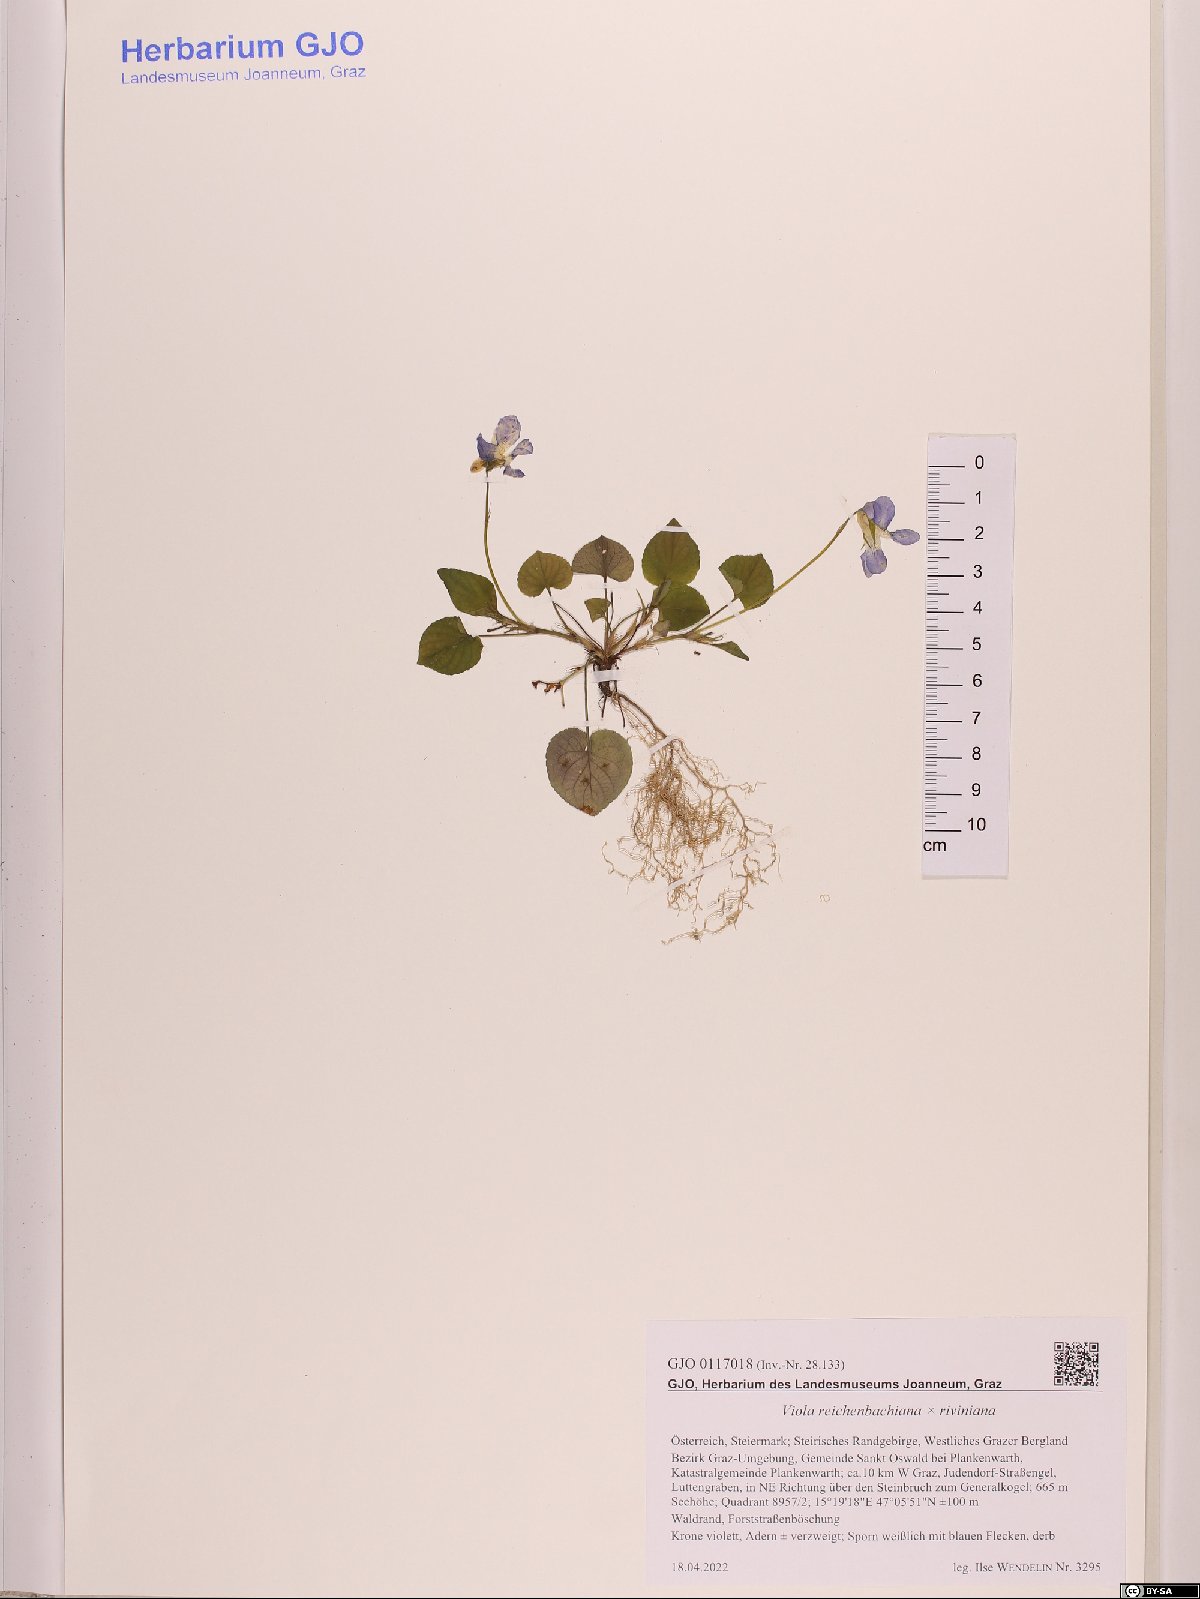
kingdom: Plantae
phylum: Tracheophyta
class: Magnoliopsida
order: Malpighiales
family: Violaceae
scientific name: Violaceae
